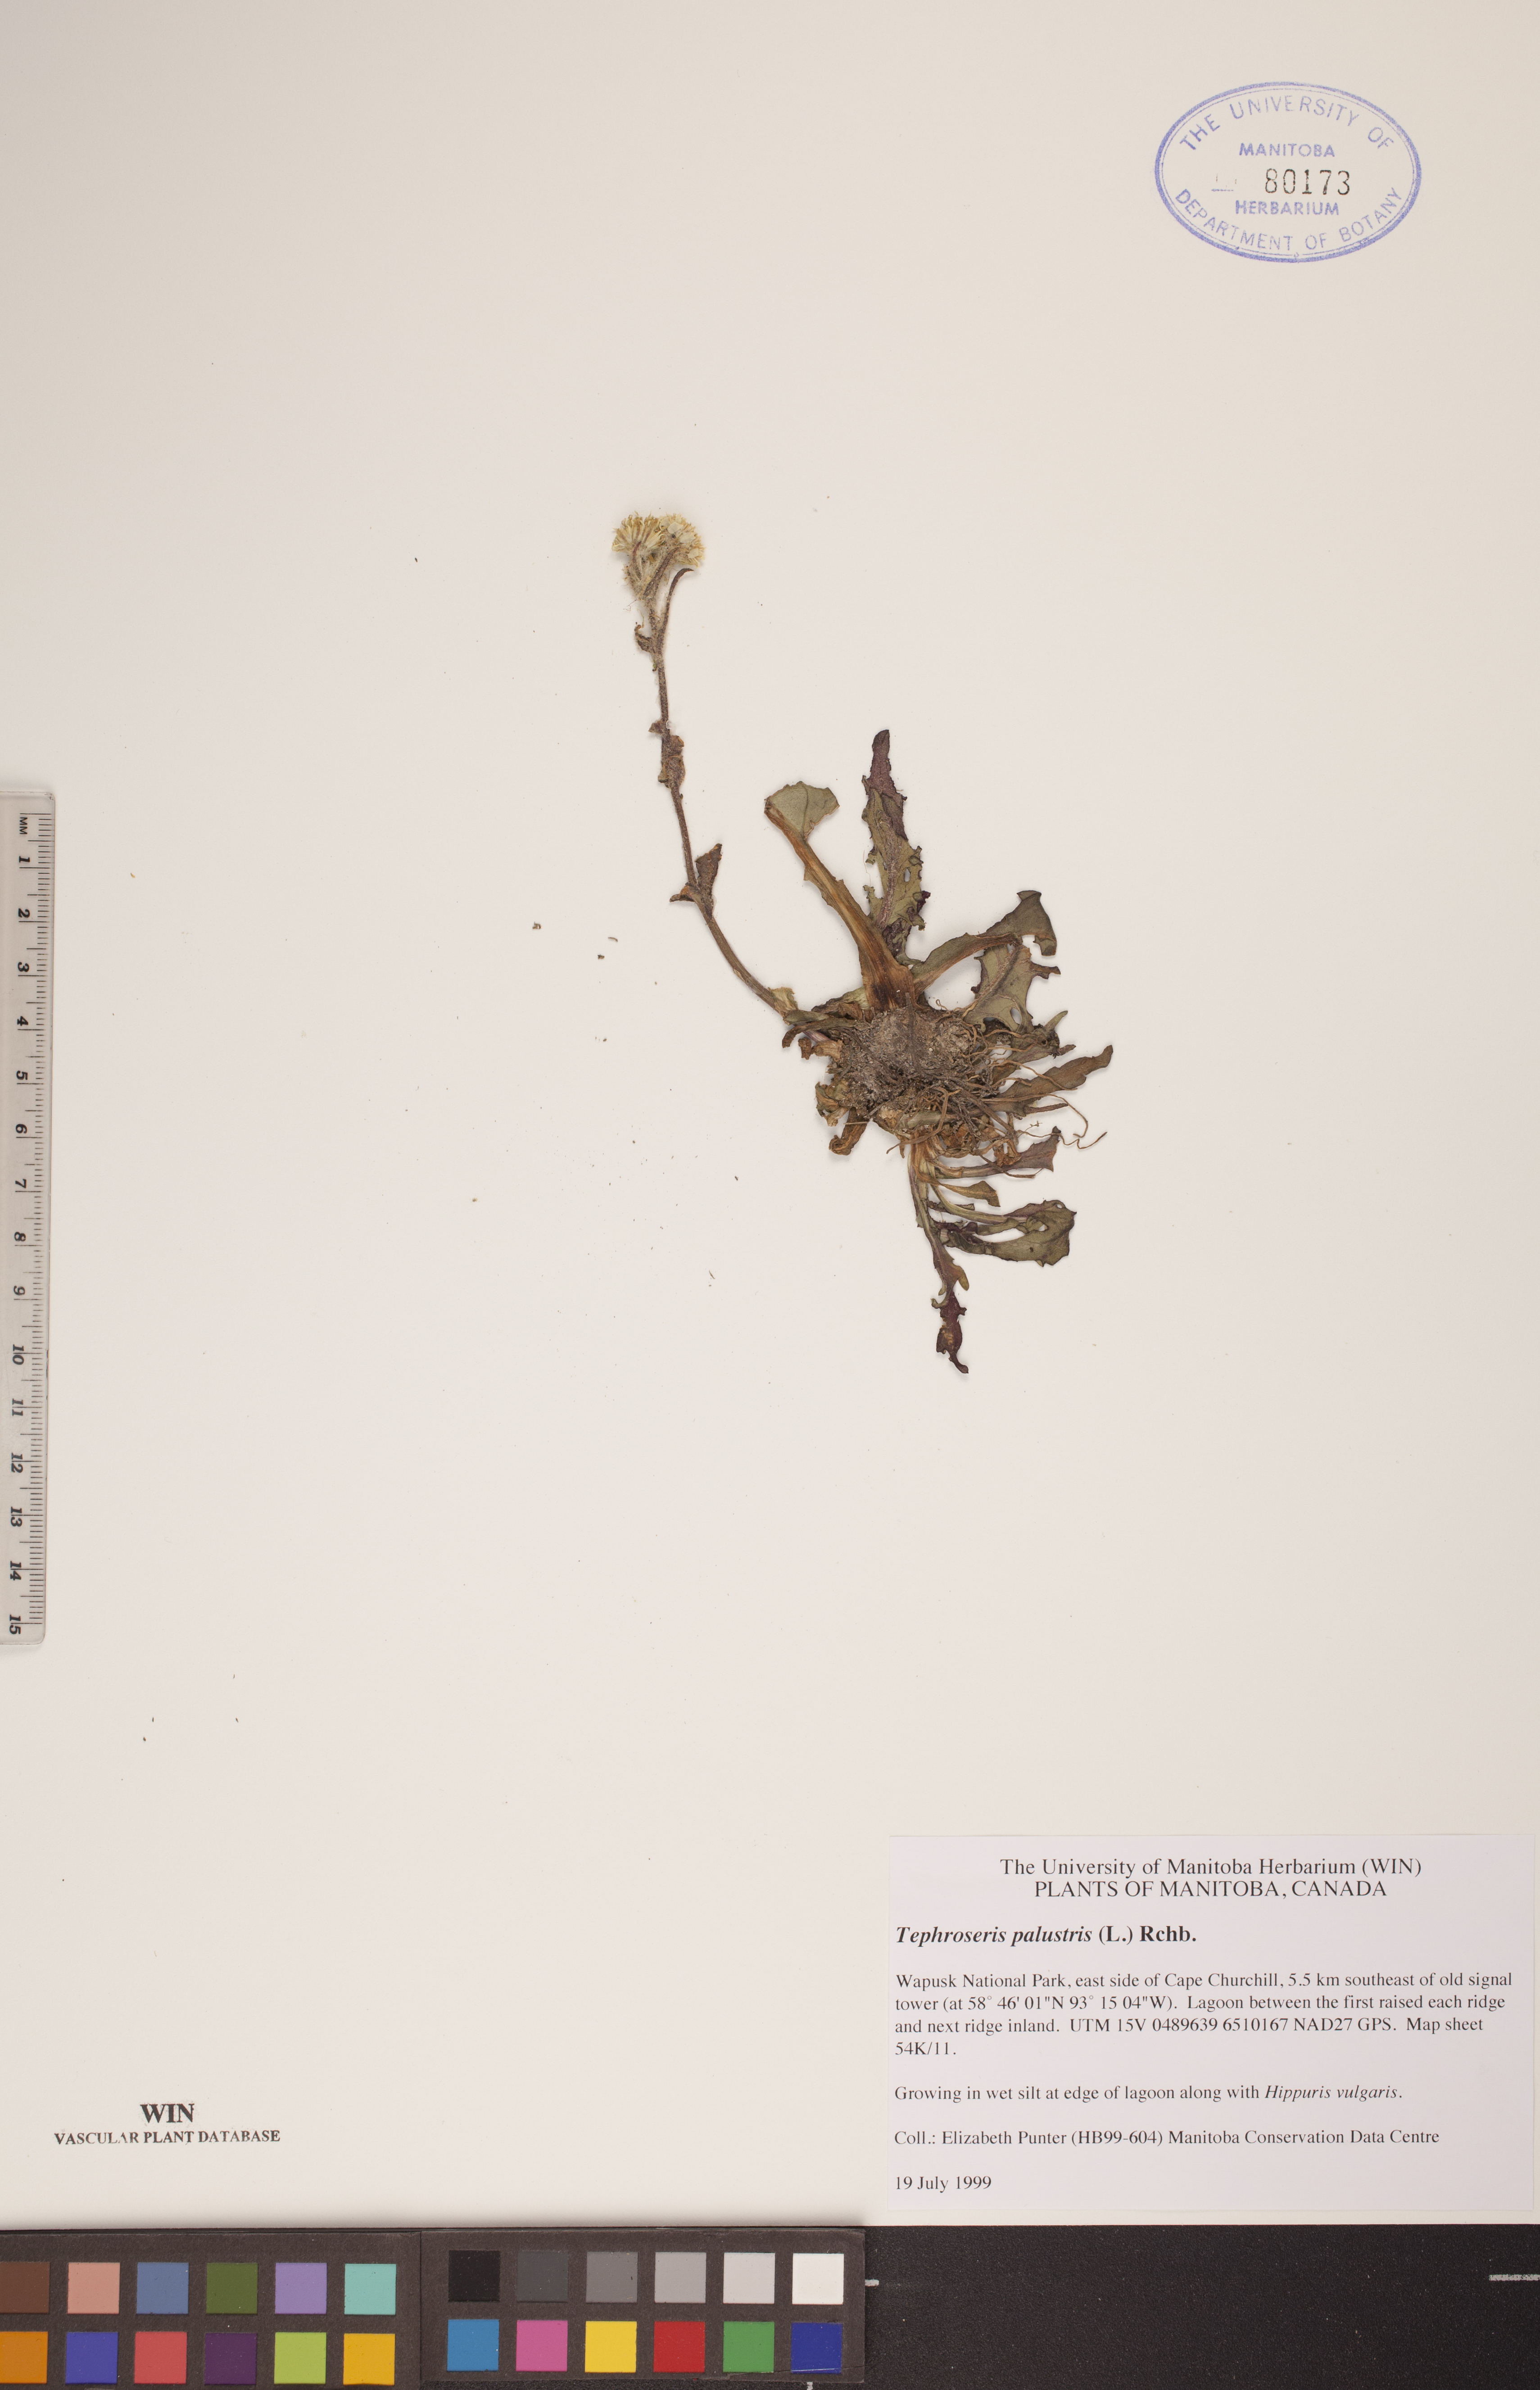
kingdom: Plantae
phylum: Tracheophyta
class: Magnoliopsida
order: Asterales
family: Asteraceae
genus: Tephroseris
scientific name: Tephroseris palustris
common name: Marsh fleawort
